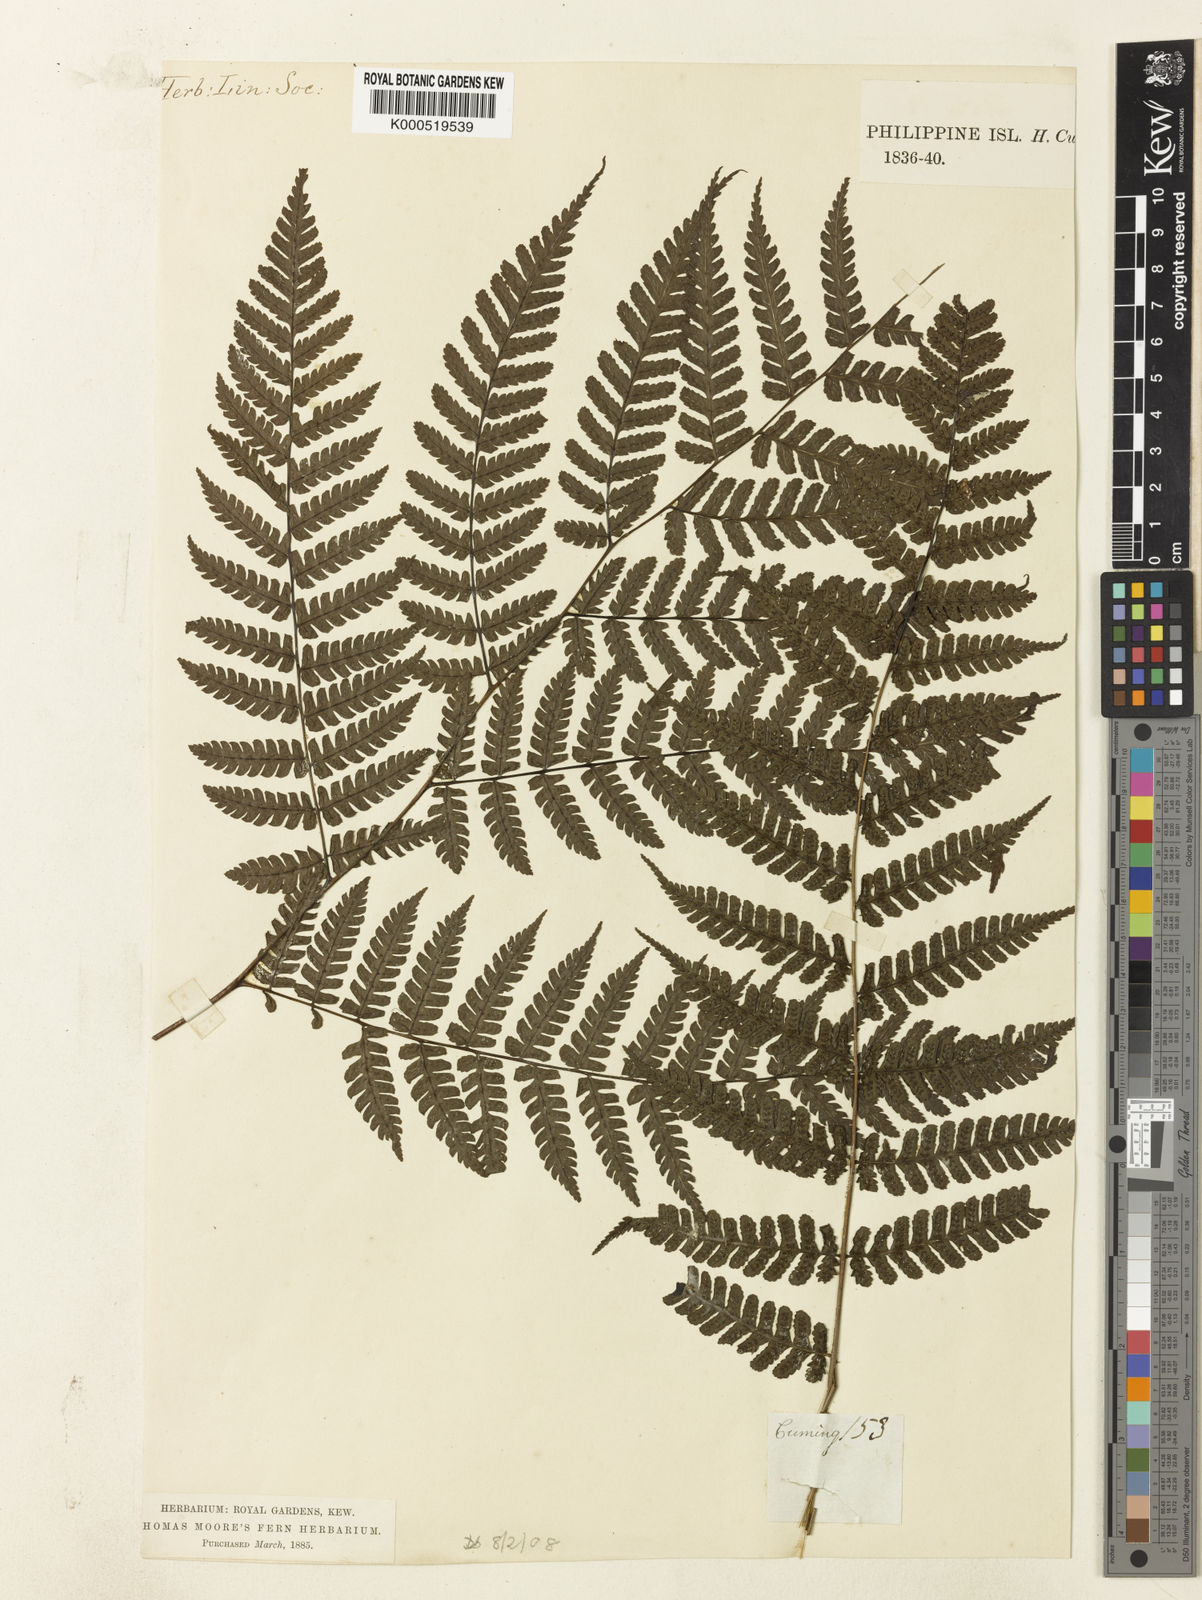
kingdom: Plantae
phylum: Tracheophyta
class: Polypodiopsida
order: Polypodiales
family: Athyriaceae
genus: Diplazium
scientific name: Diplazium woodwardioides
